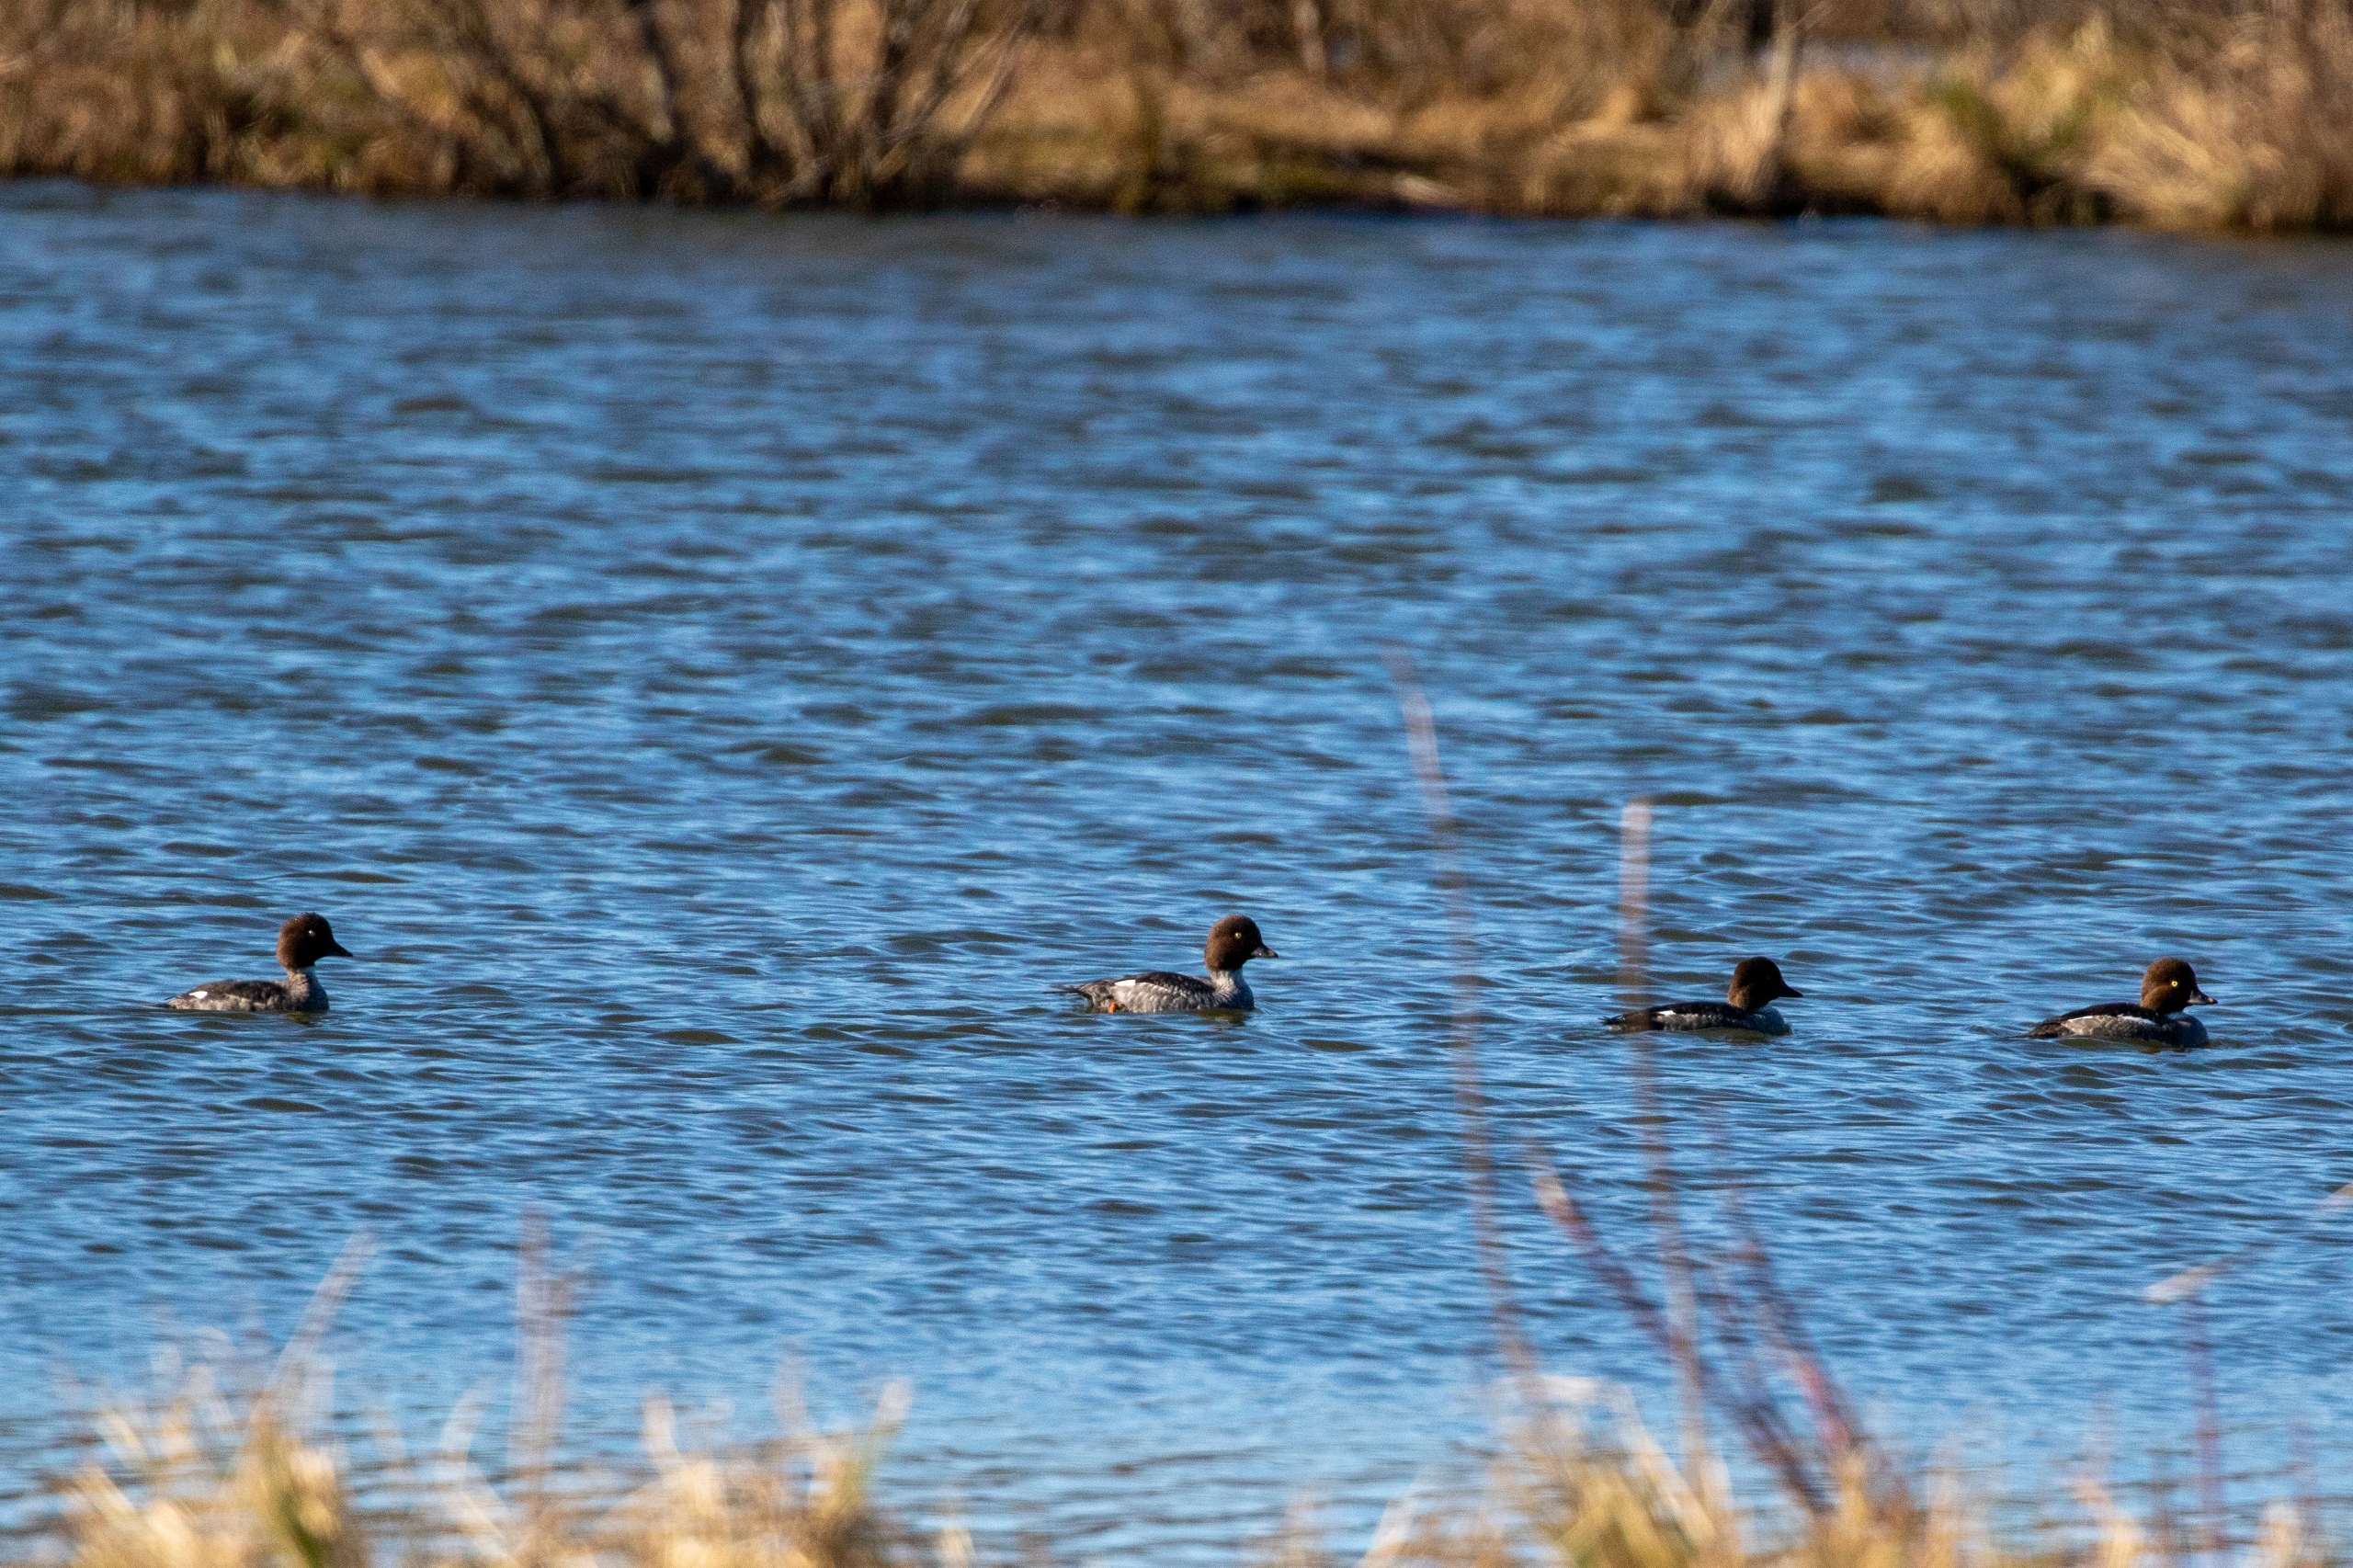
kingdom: Animalia
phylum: Chordata
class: Aves
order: Anseriformes
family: Anatidae
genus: Bucephala
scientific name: Bucephala clangula
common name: Hvinand
